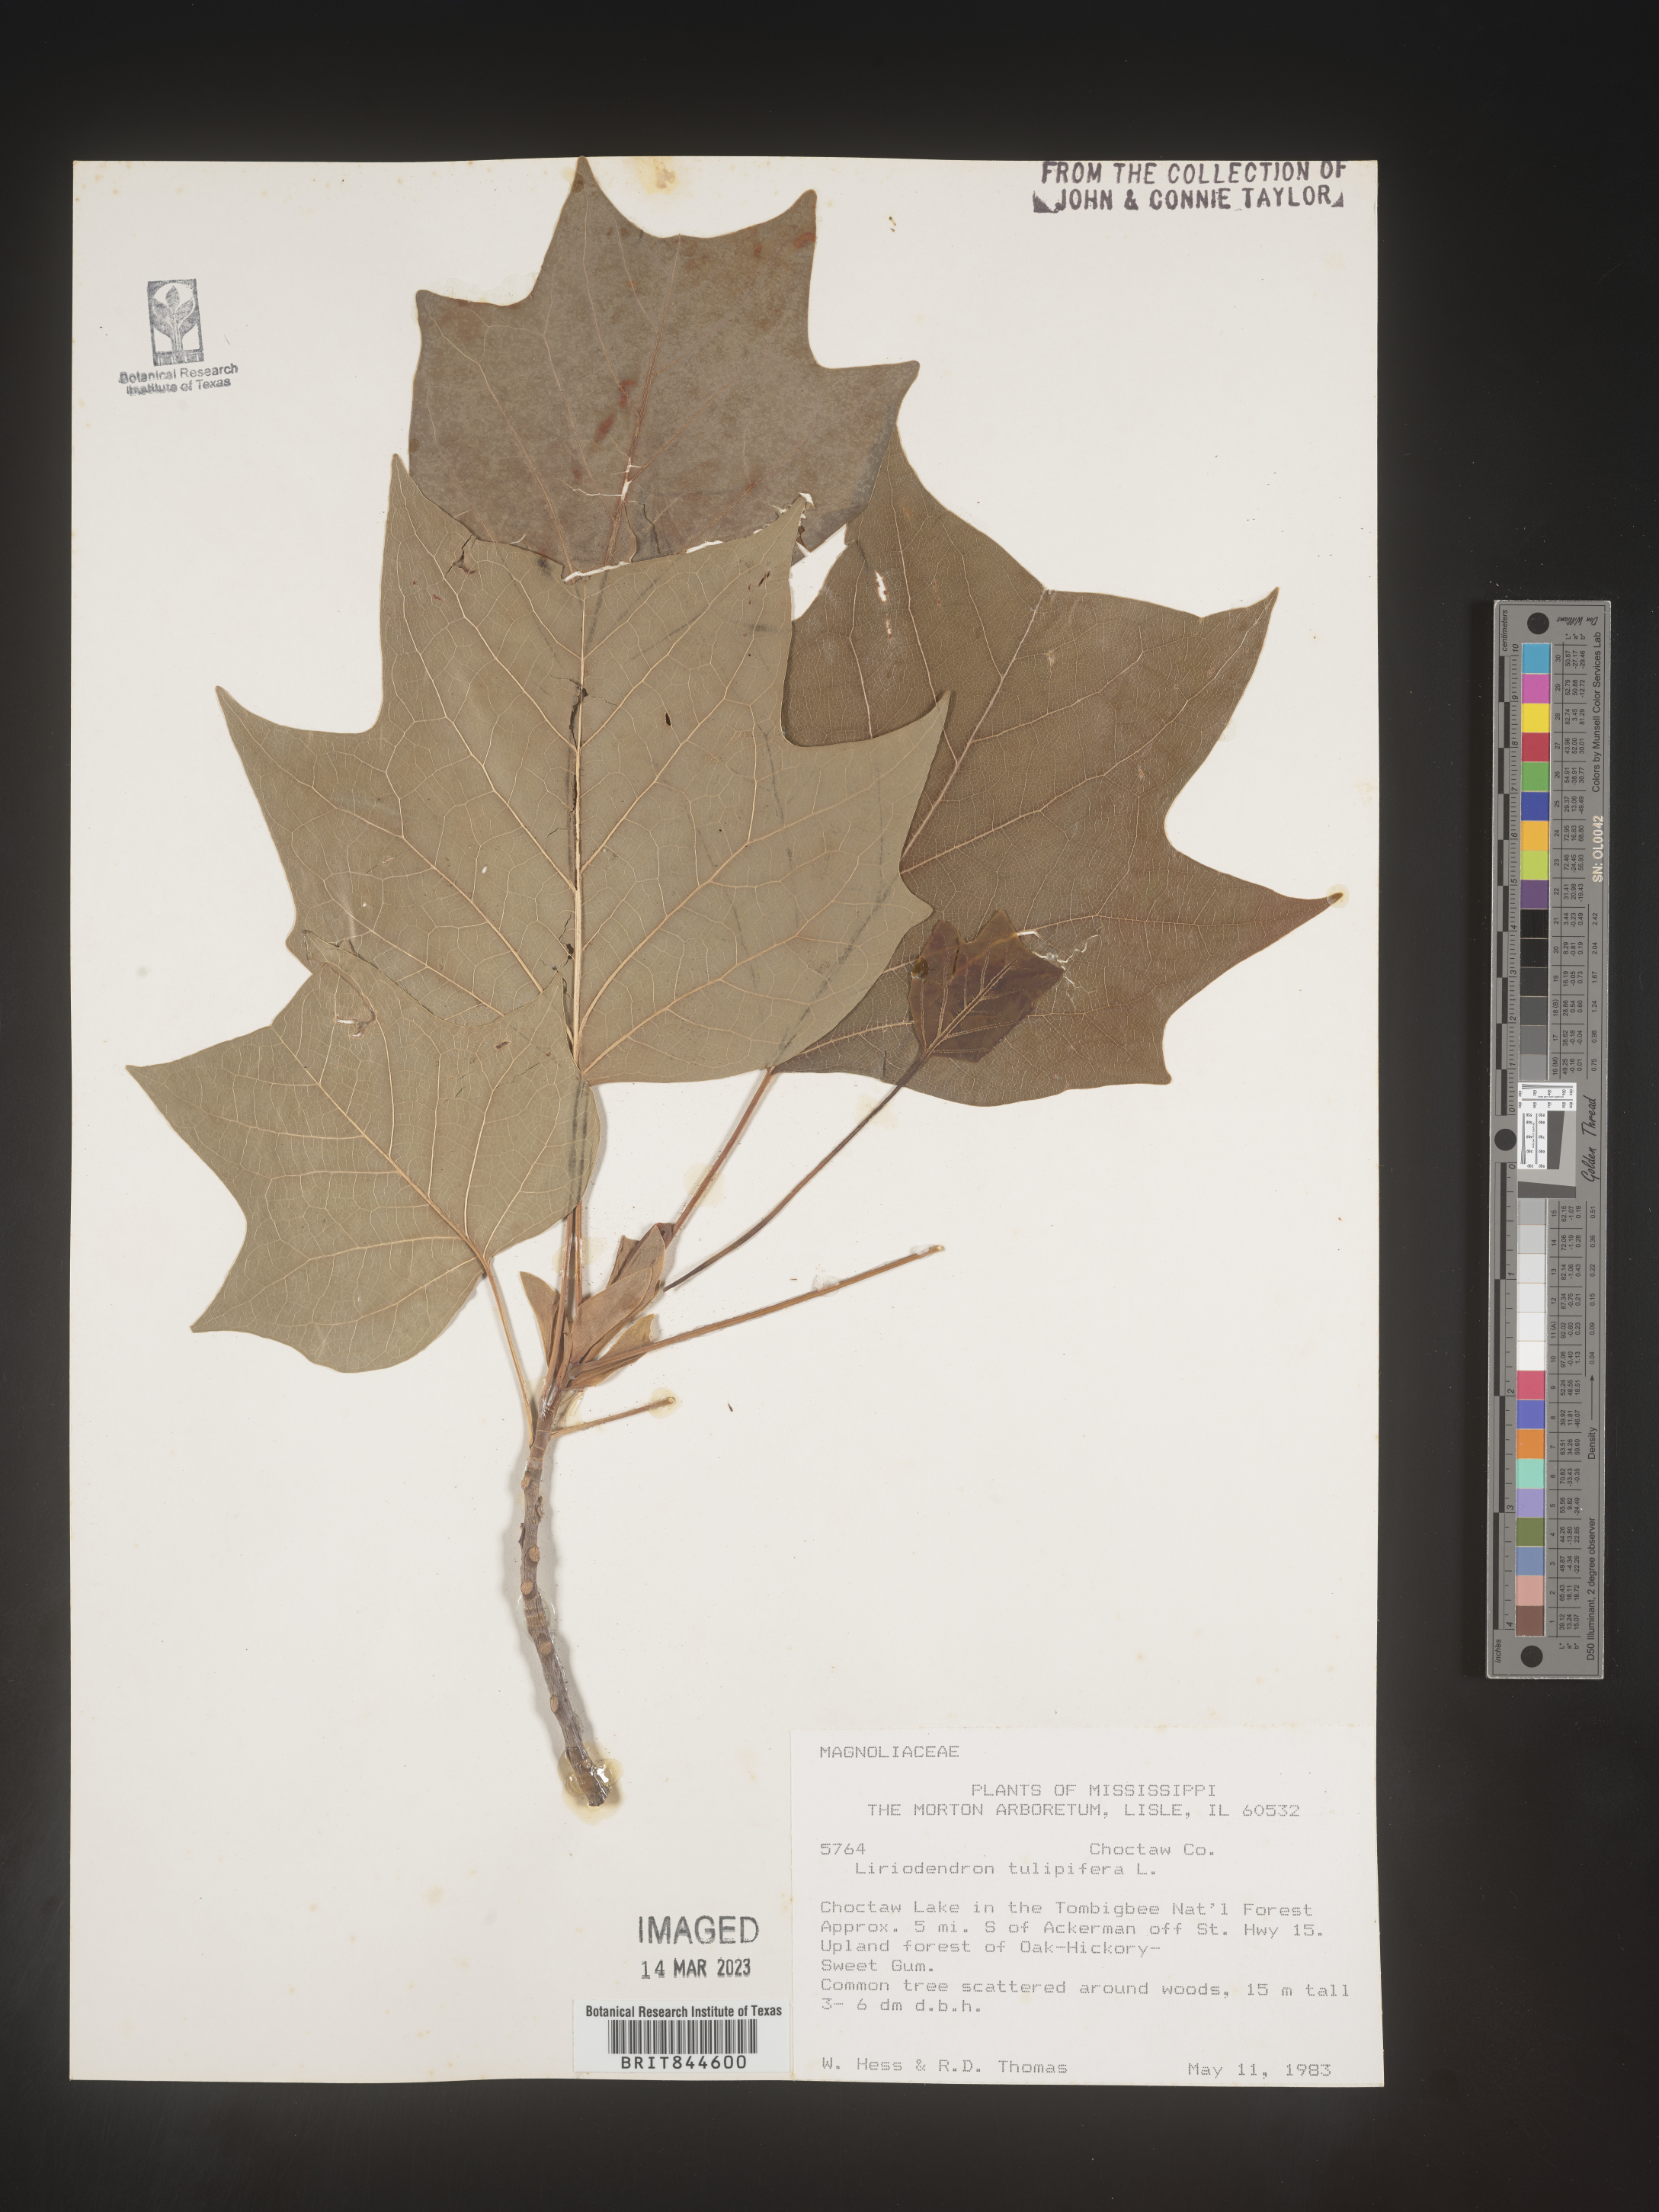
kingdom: Plantae
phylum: Tracheophyta
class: Magnoliopsida
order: Magnoliales
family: Magnoliaceae
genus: Liriodendron
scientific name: Liriodendron tulipifera
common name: Tulip tree
